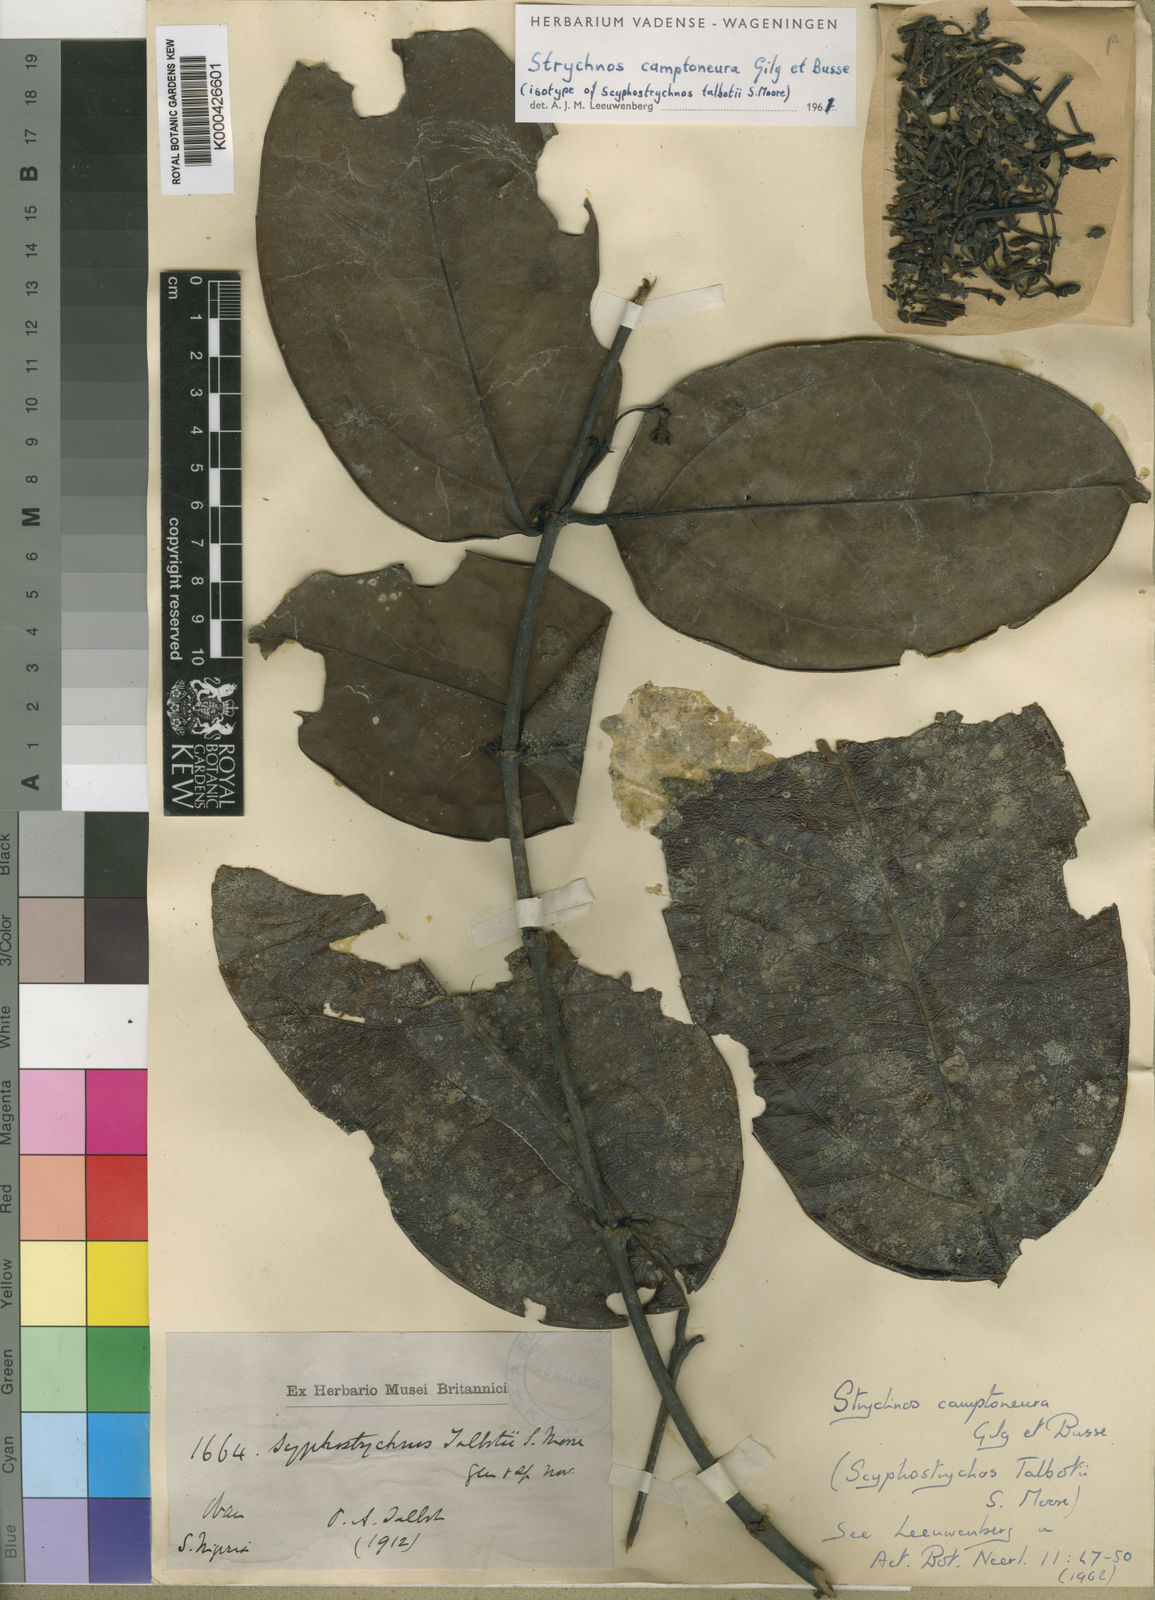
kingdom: Plantae
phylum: Tracheophyta
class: Magnoliopsida
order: Gentianales
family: Loganiaceae
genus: Strychnos
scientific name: Strychnos camptoneura
